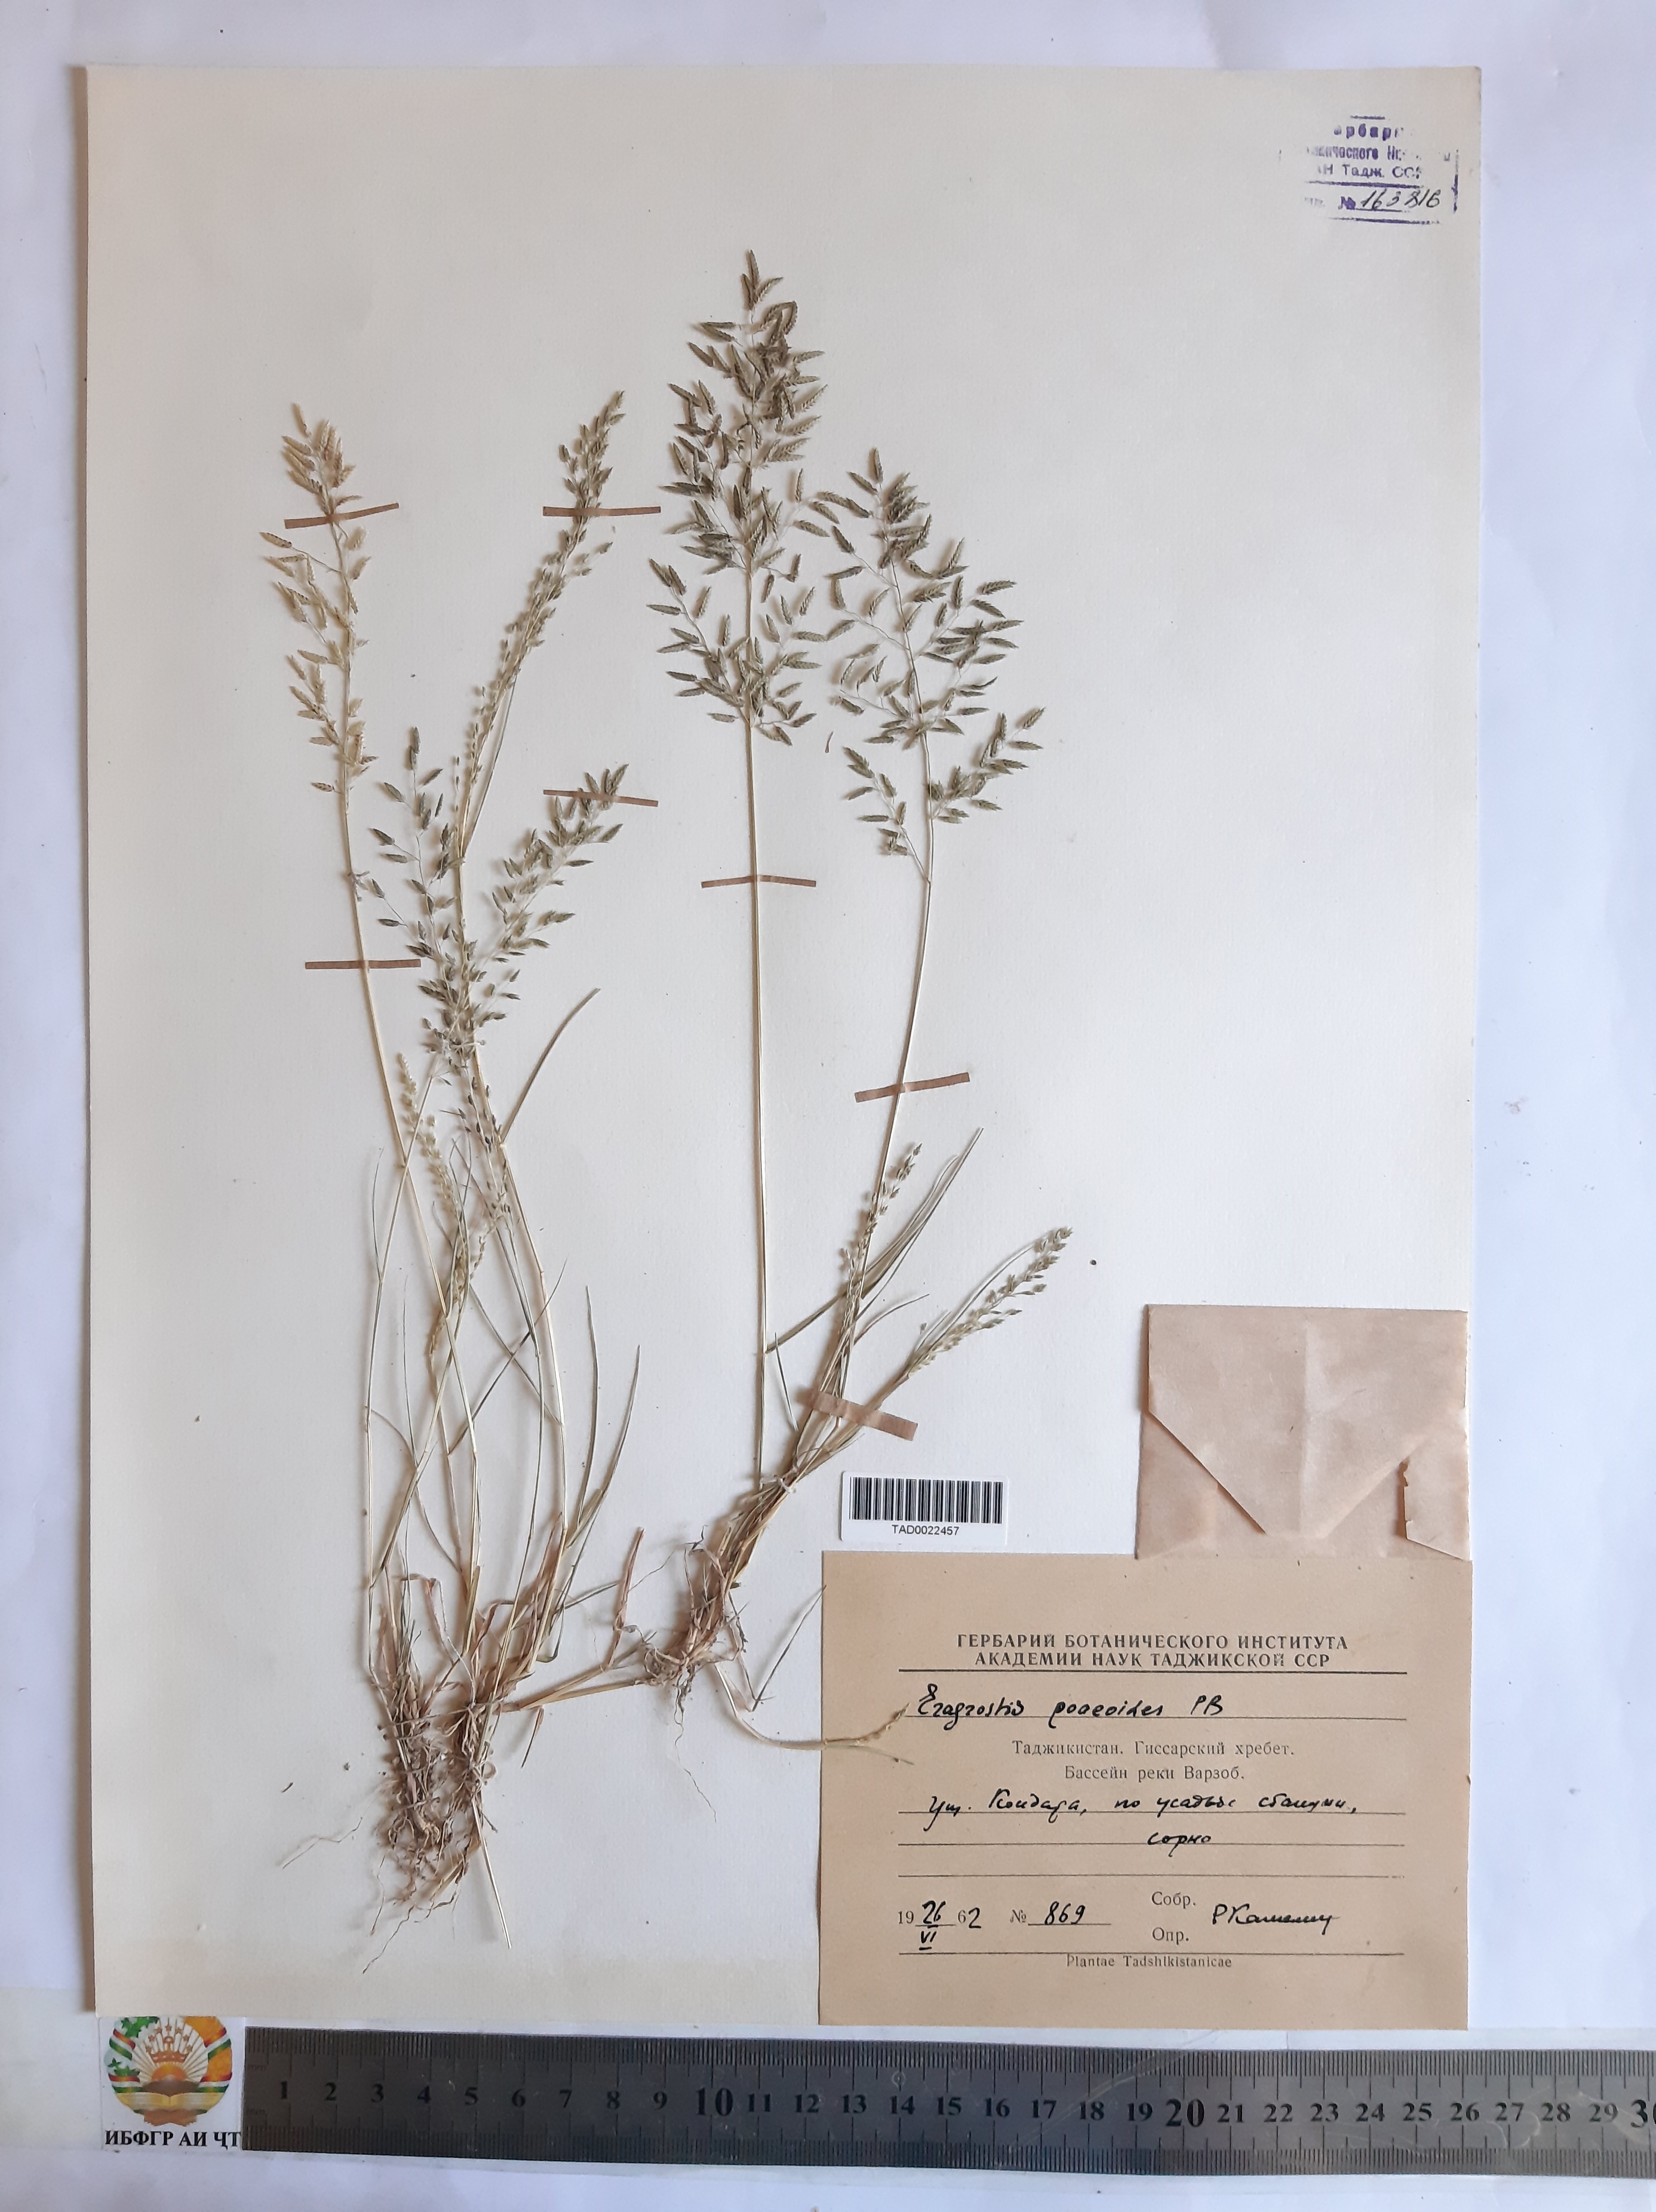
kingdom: Plantae
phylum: Tracheophyta
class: Liliopsida
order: Poales
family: Poaceae
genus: Eragrostis
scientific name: Eragrostis minor
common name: Small love-grass
